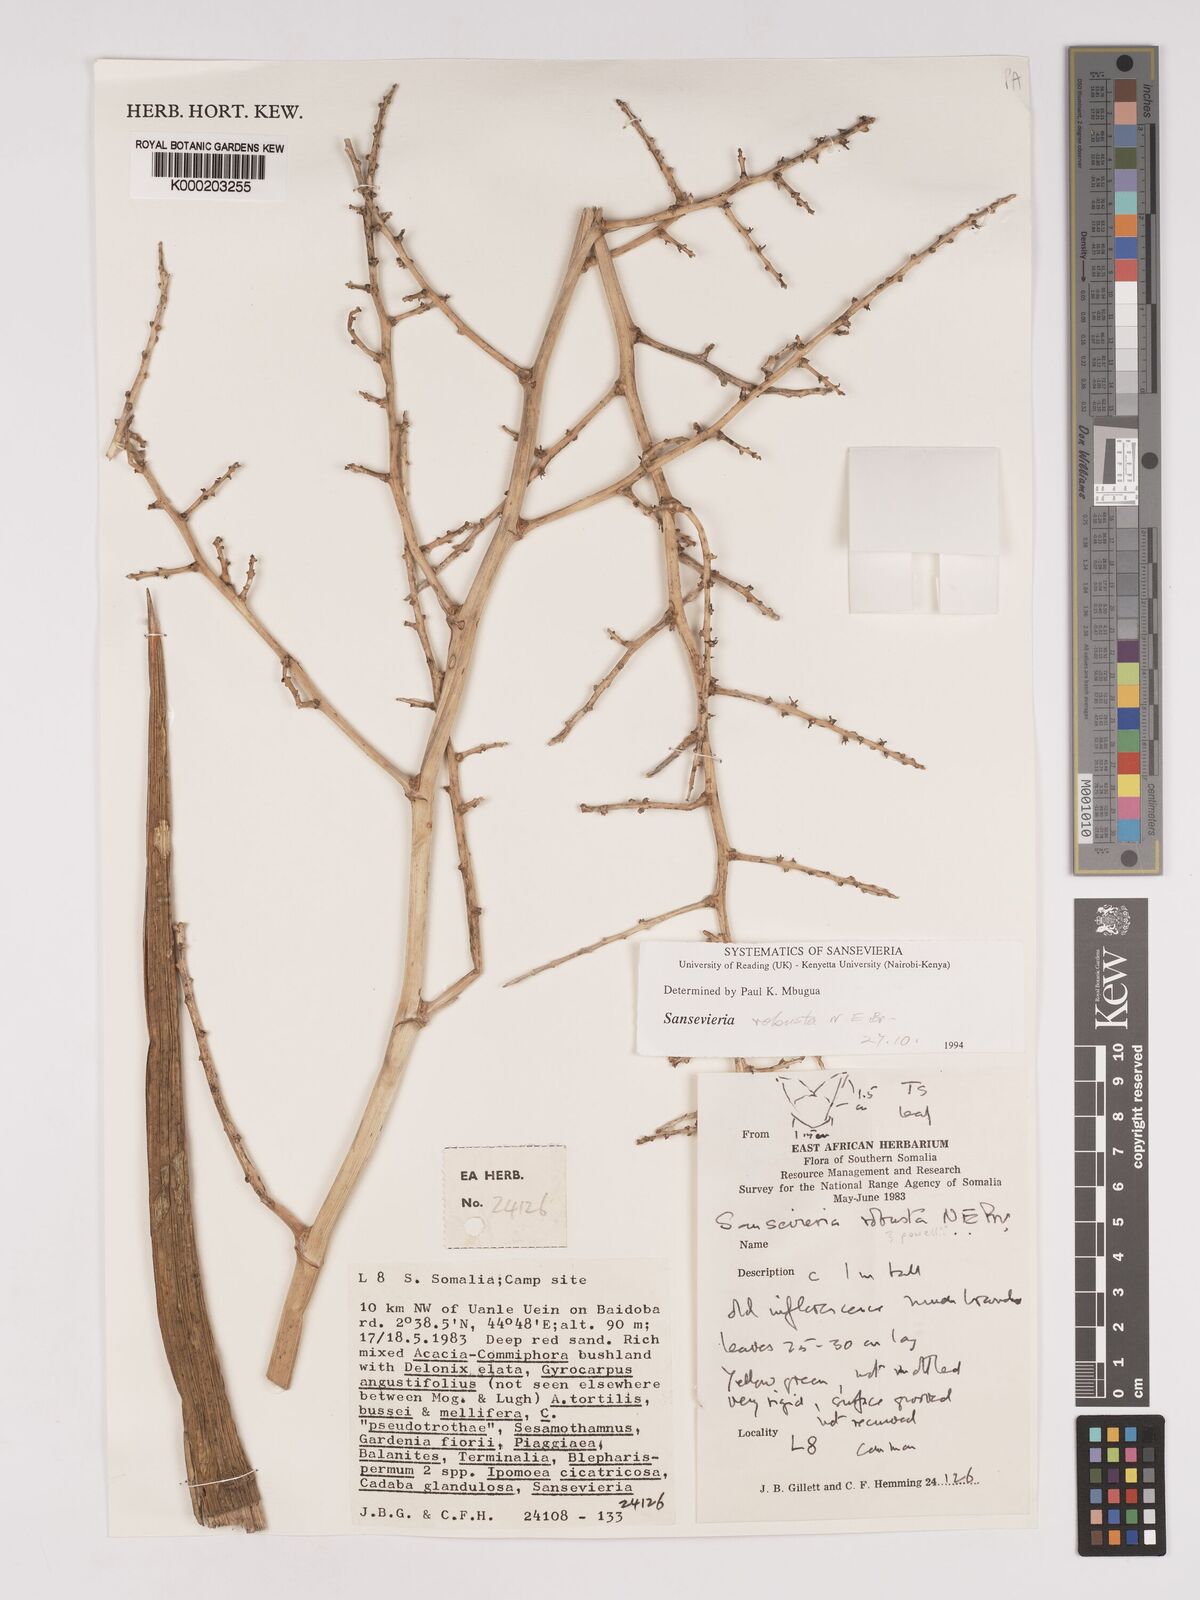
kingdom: Plantae
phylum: Tracheophyta
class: Liliopsida
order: Asparagales
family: Asparagaceae
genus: Dracaena
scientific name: Dracaena perrotii
